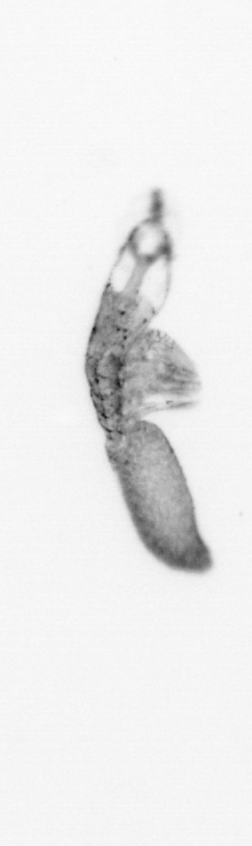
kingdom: Animalia
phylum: Arthropoda
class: Copepoda
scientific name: Copepoda
